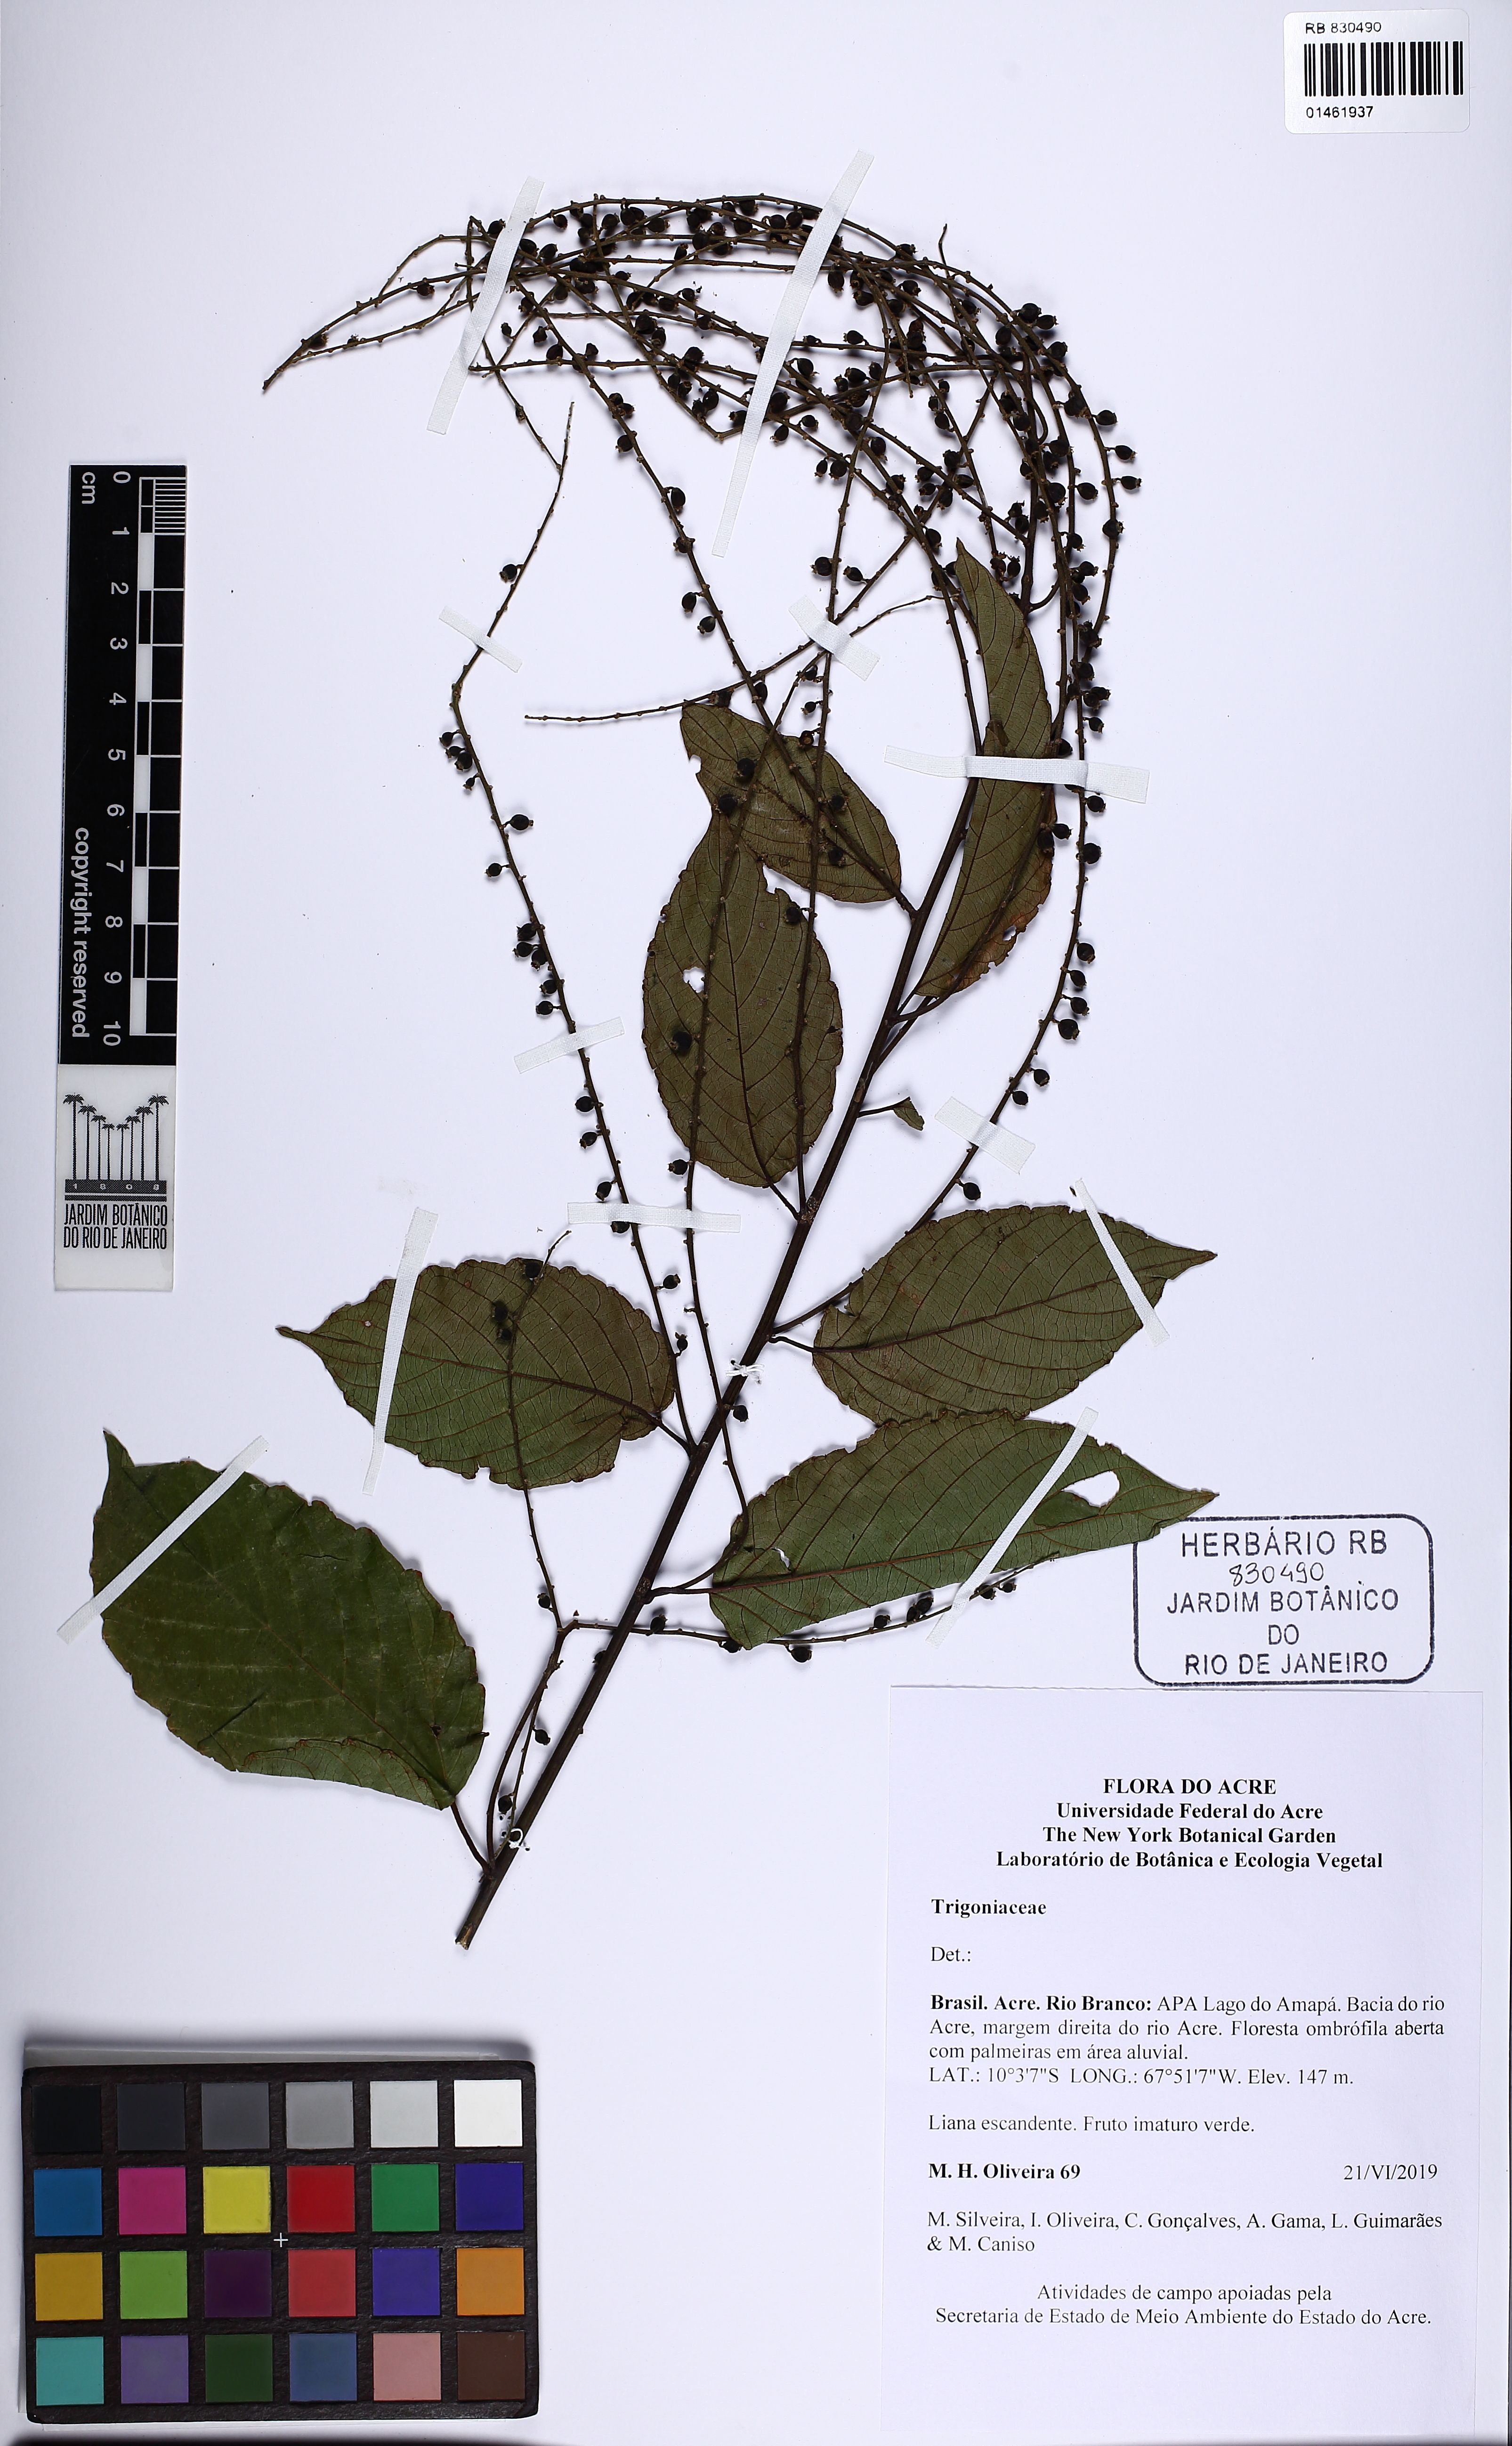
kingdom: Plantae
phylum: Tracheophyta
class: Magnoliopsida
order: Malpighiales
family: Trigoniaceae
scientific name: Trigoniaceae
